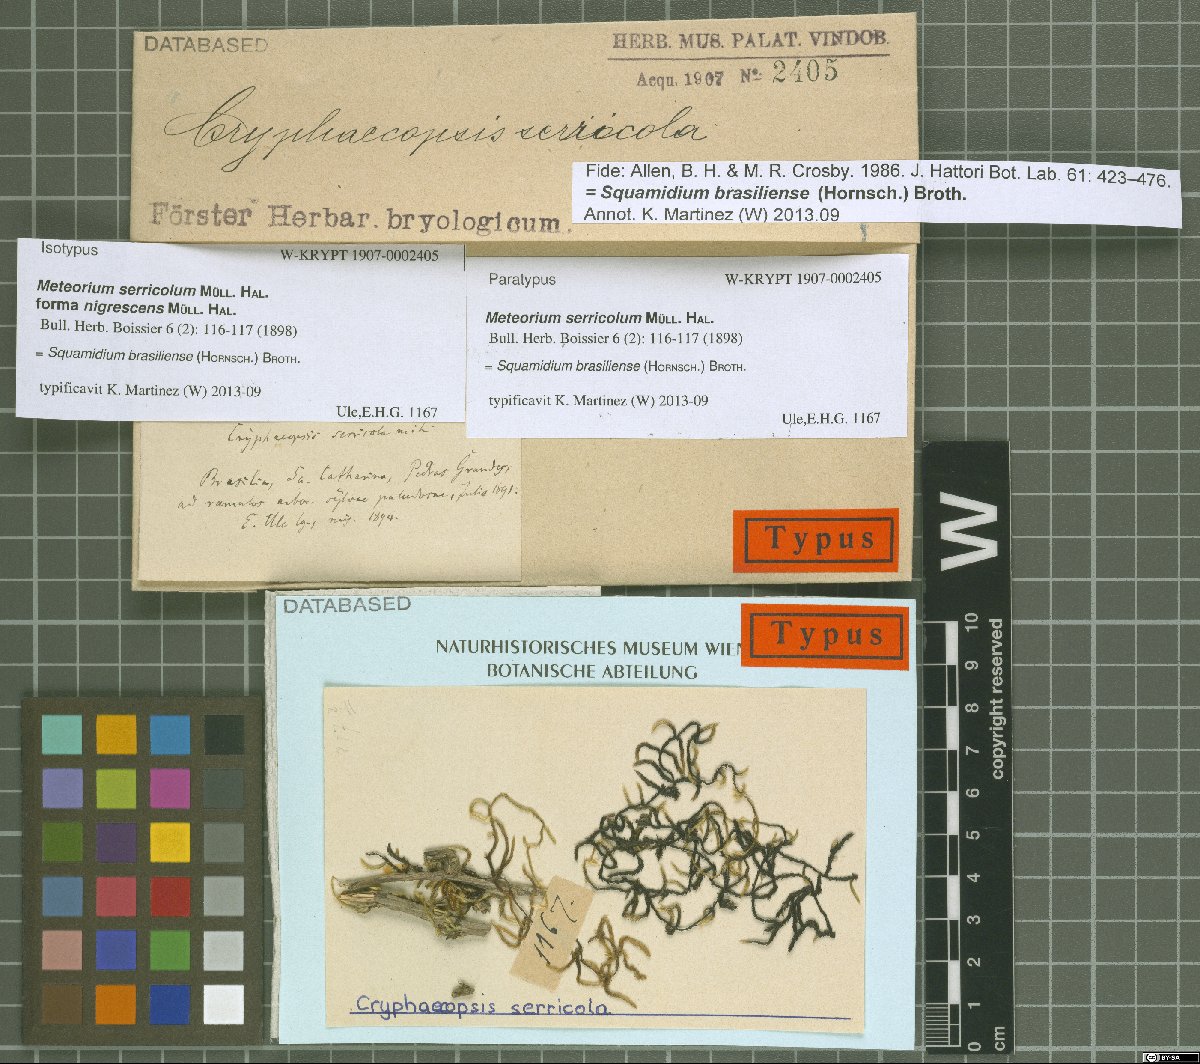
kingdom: Plantae
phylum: Bryophyta
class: Bryopsida
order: Hypnales
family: Brachytheciaceae
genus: Squamidium
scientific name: Squamidium brasiliense
